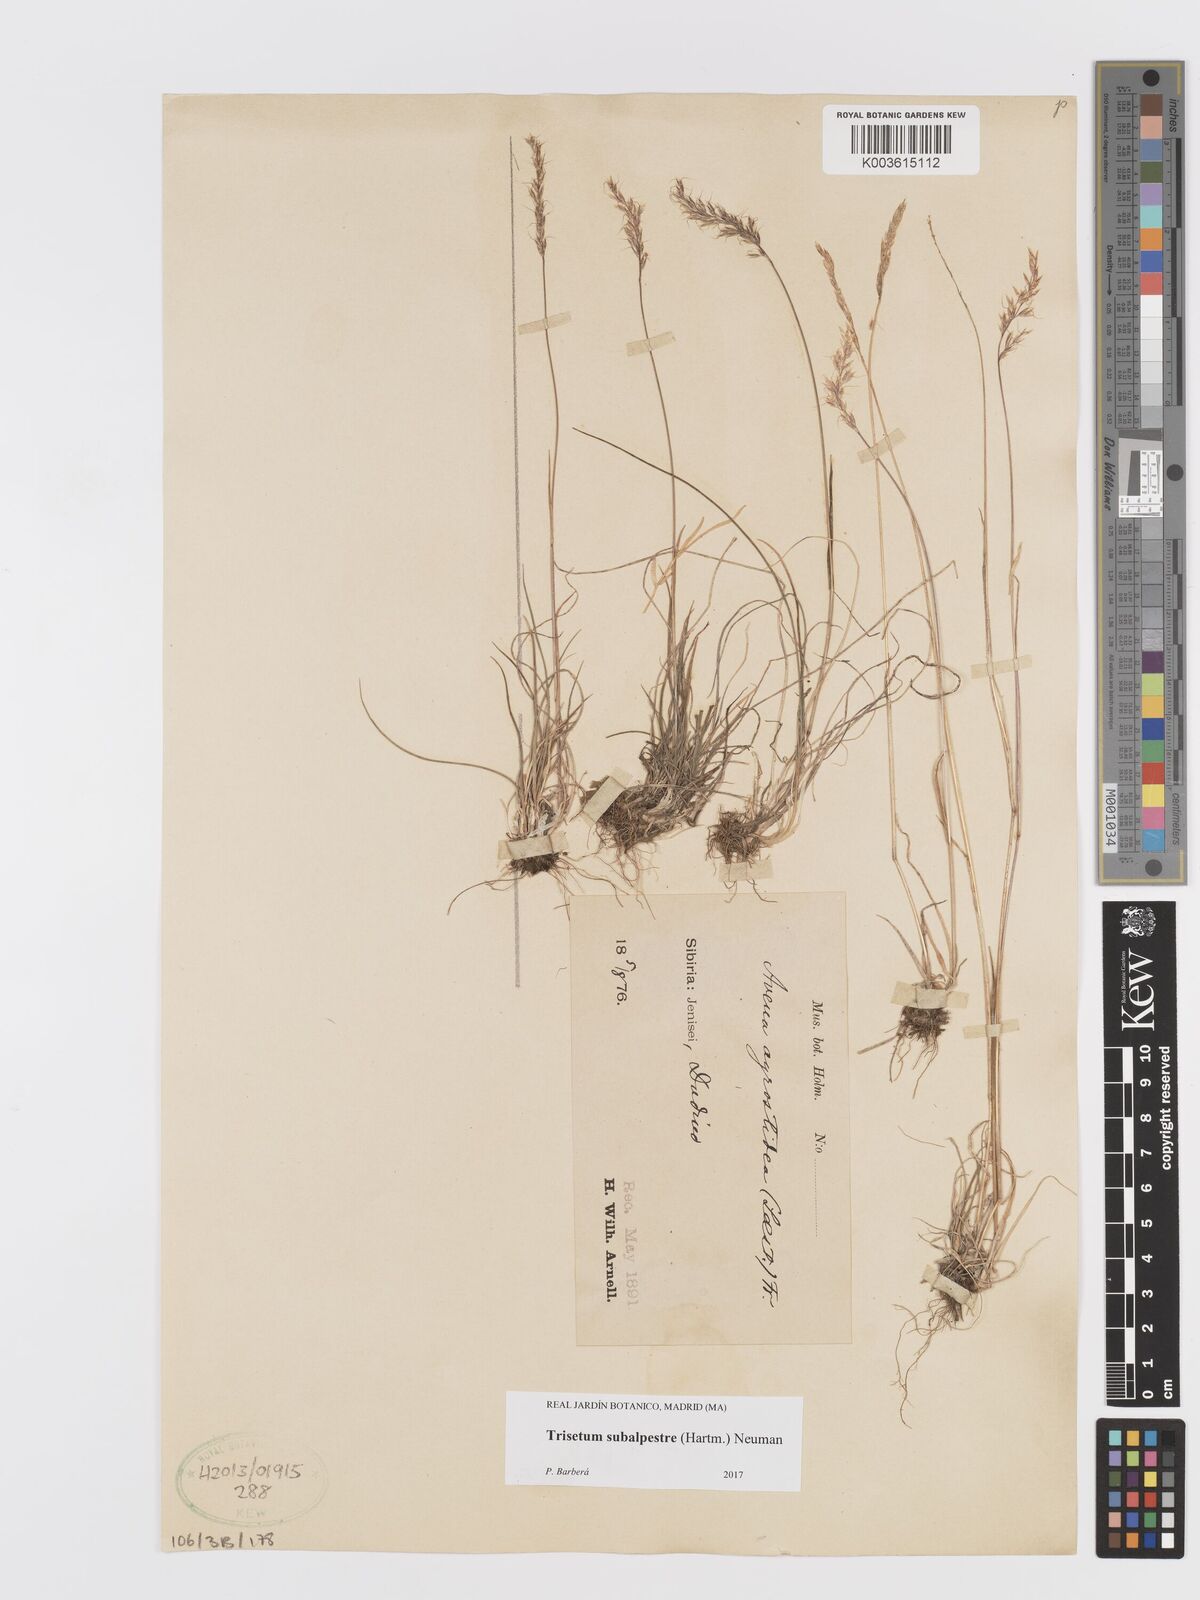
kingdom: Plantae
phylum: Tracheophyta
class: Liliopsida
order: Poales
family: Poaceae
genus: Koeleria
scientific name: Koeleria subalpestris
